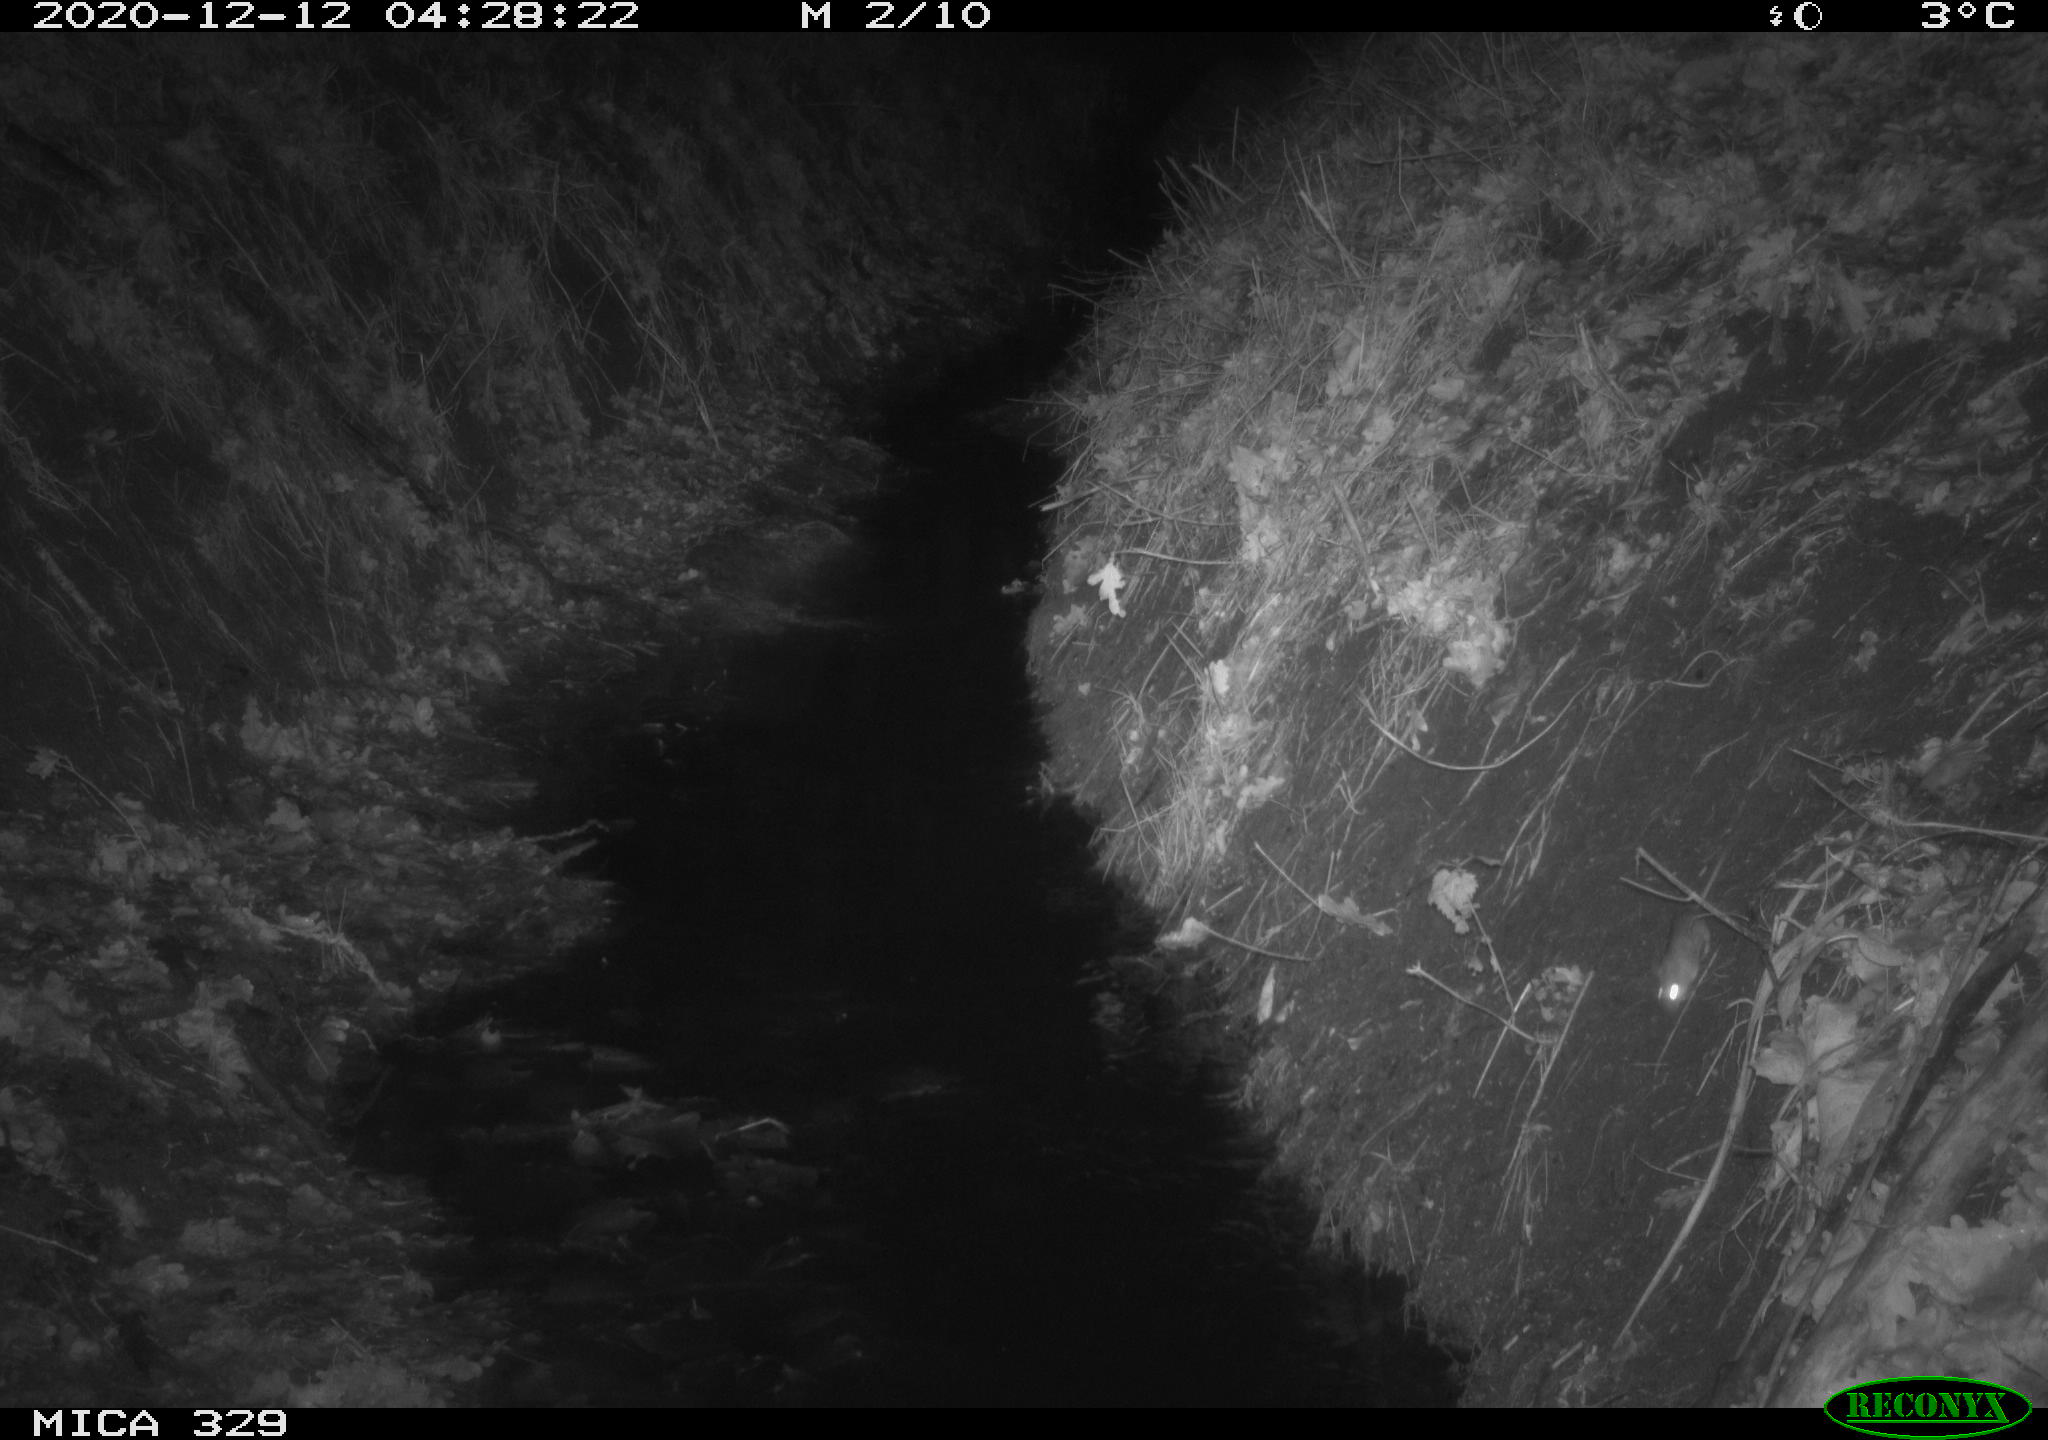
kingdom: Animalia
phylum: Chordata
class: Mammalia
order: Rodentia
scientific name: Rodentia
